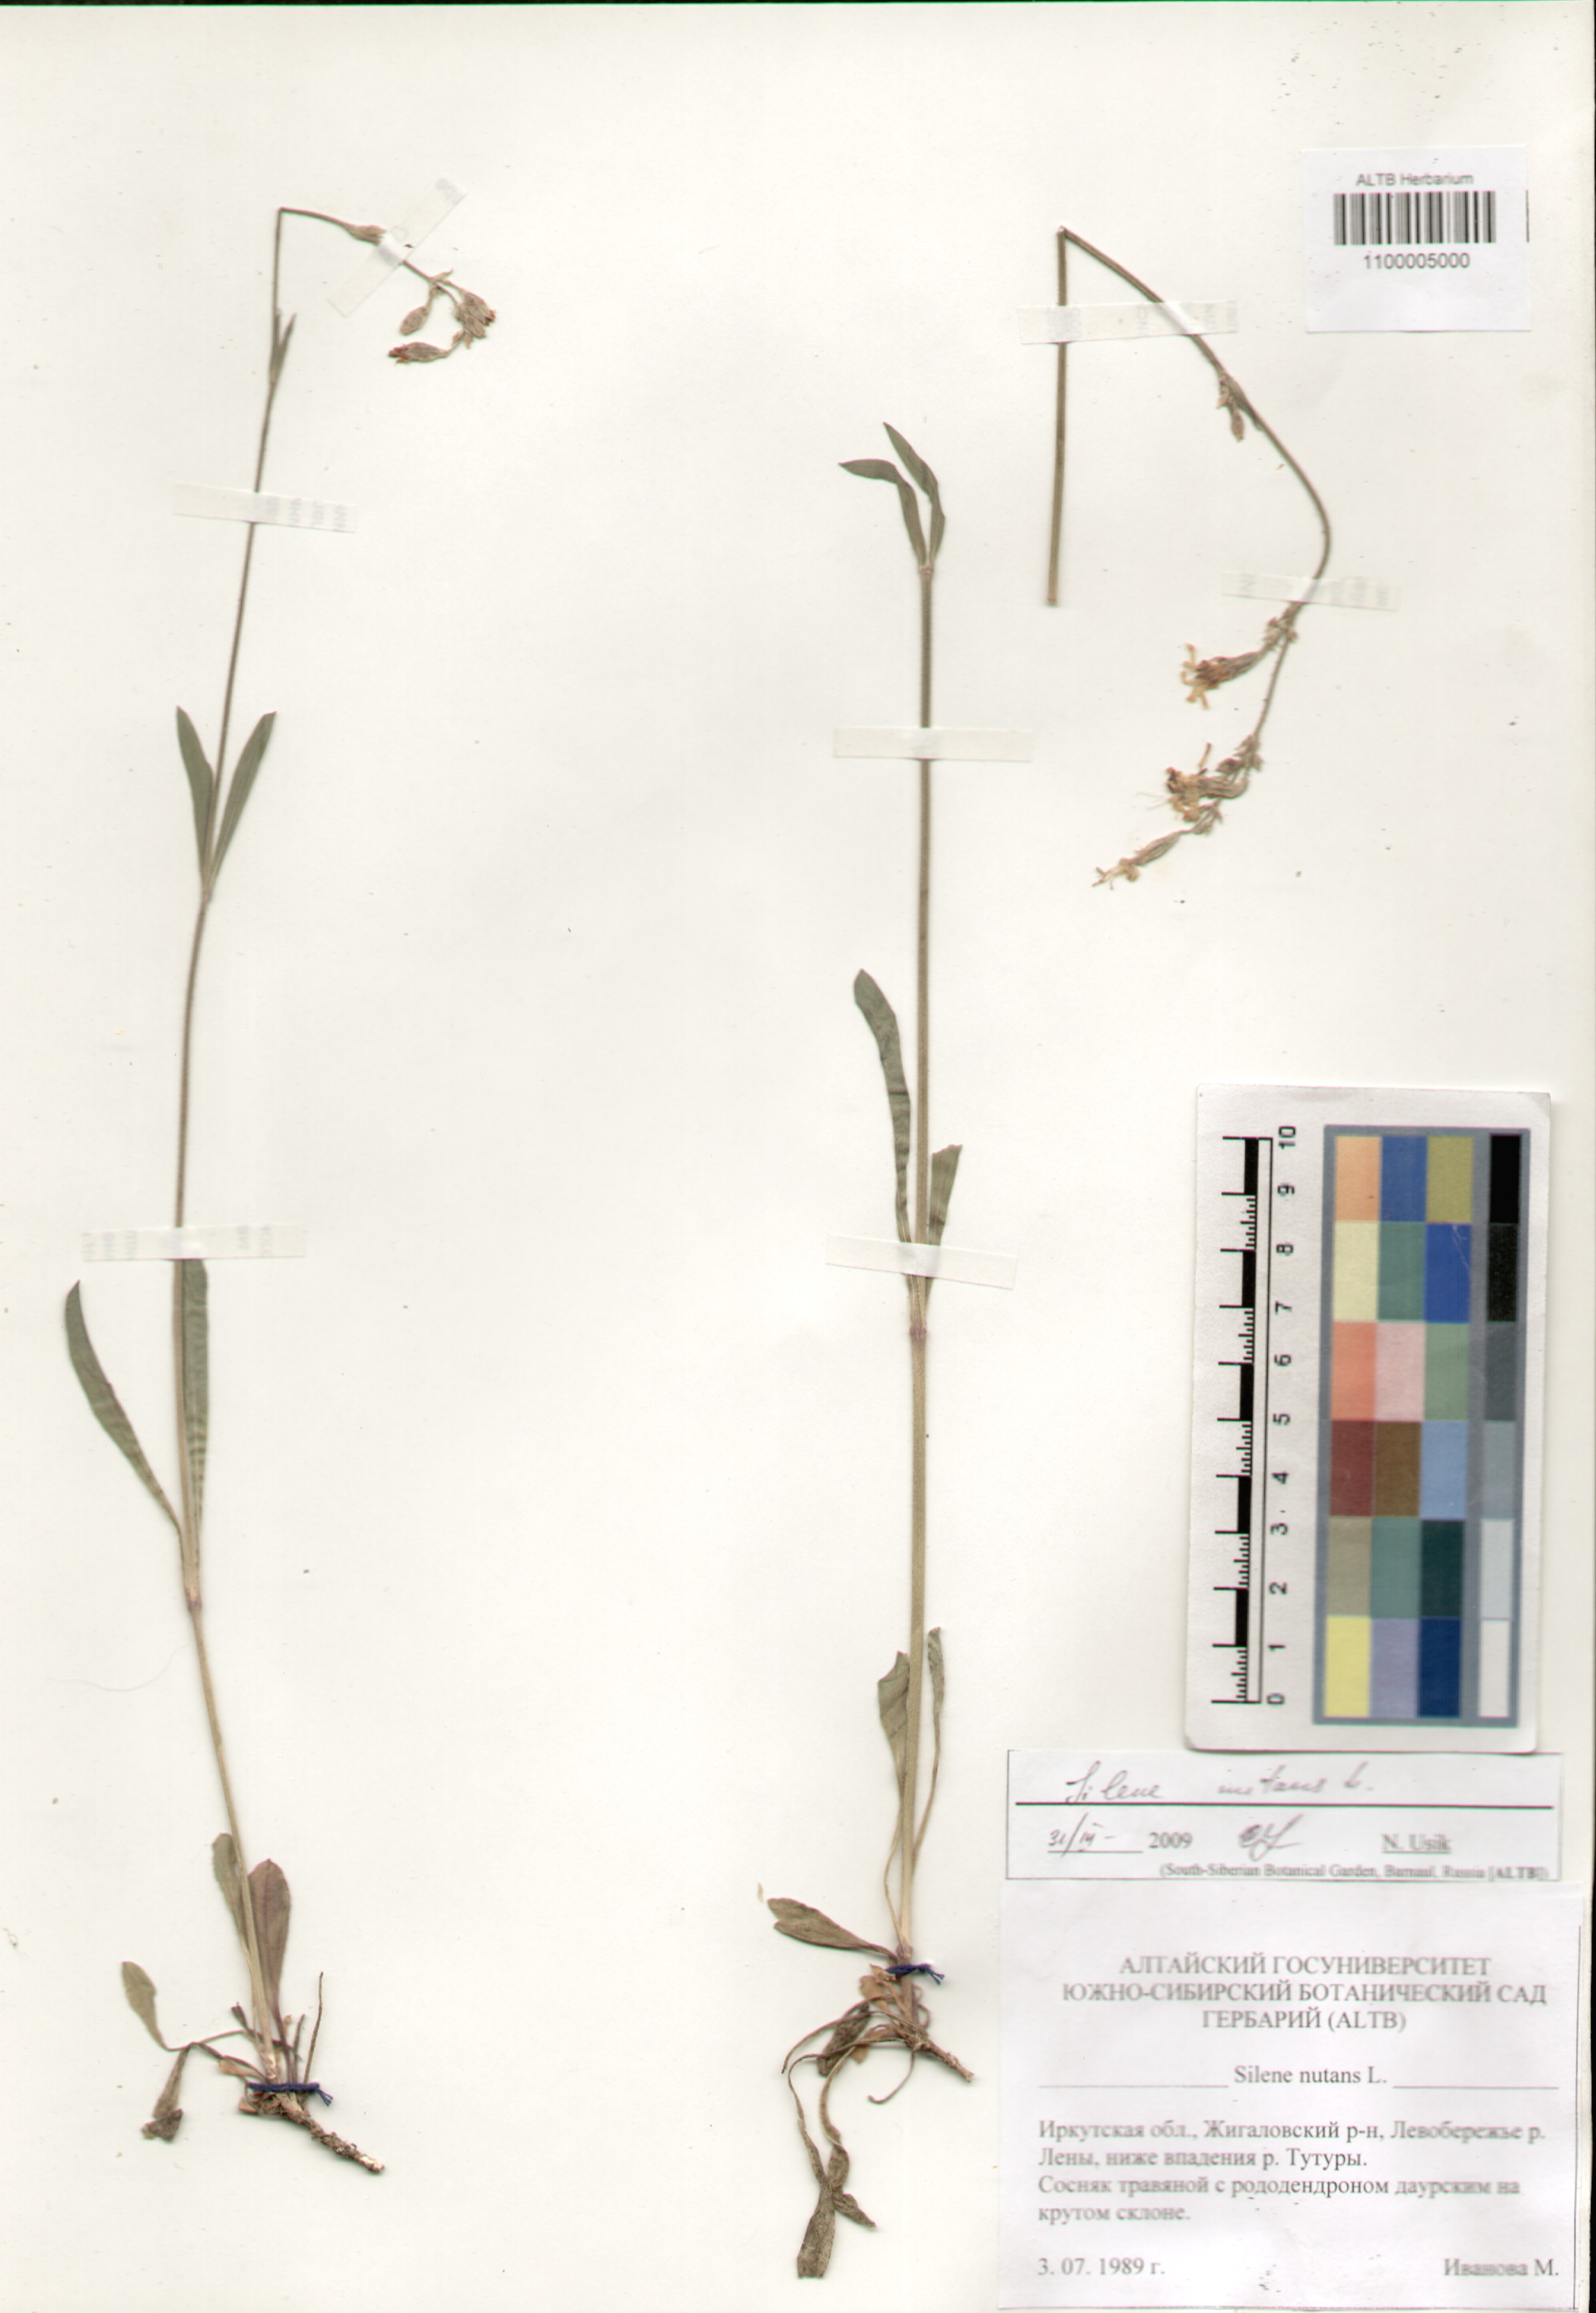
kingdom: Plantae
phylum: Tracheophyta
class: Magnoliopsida
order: Caryophyllales
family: Caryophyllaceae
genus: Silene
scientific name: Silene nutans
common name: Nottingham catchfly
